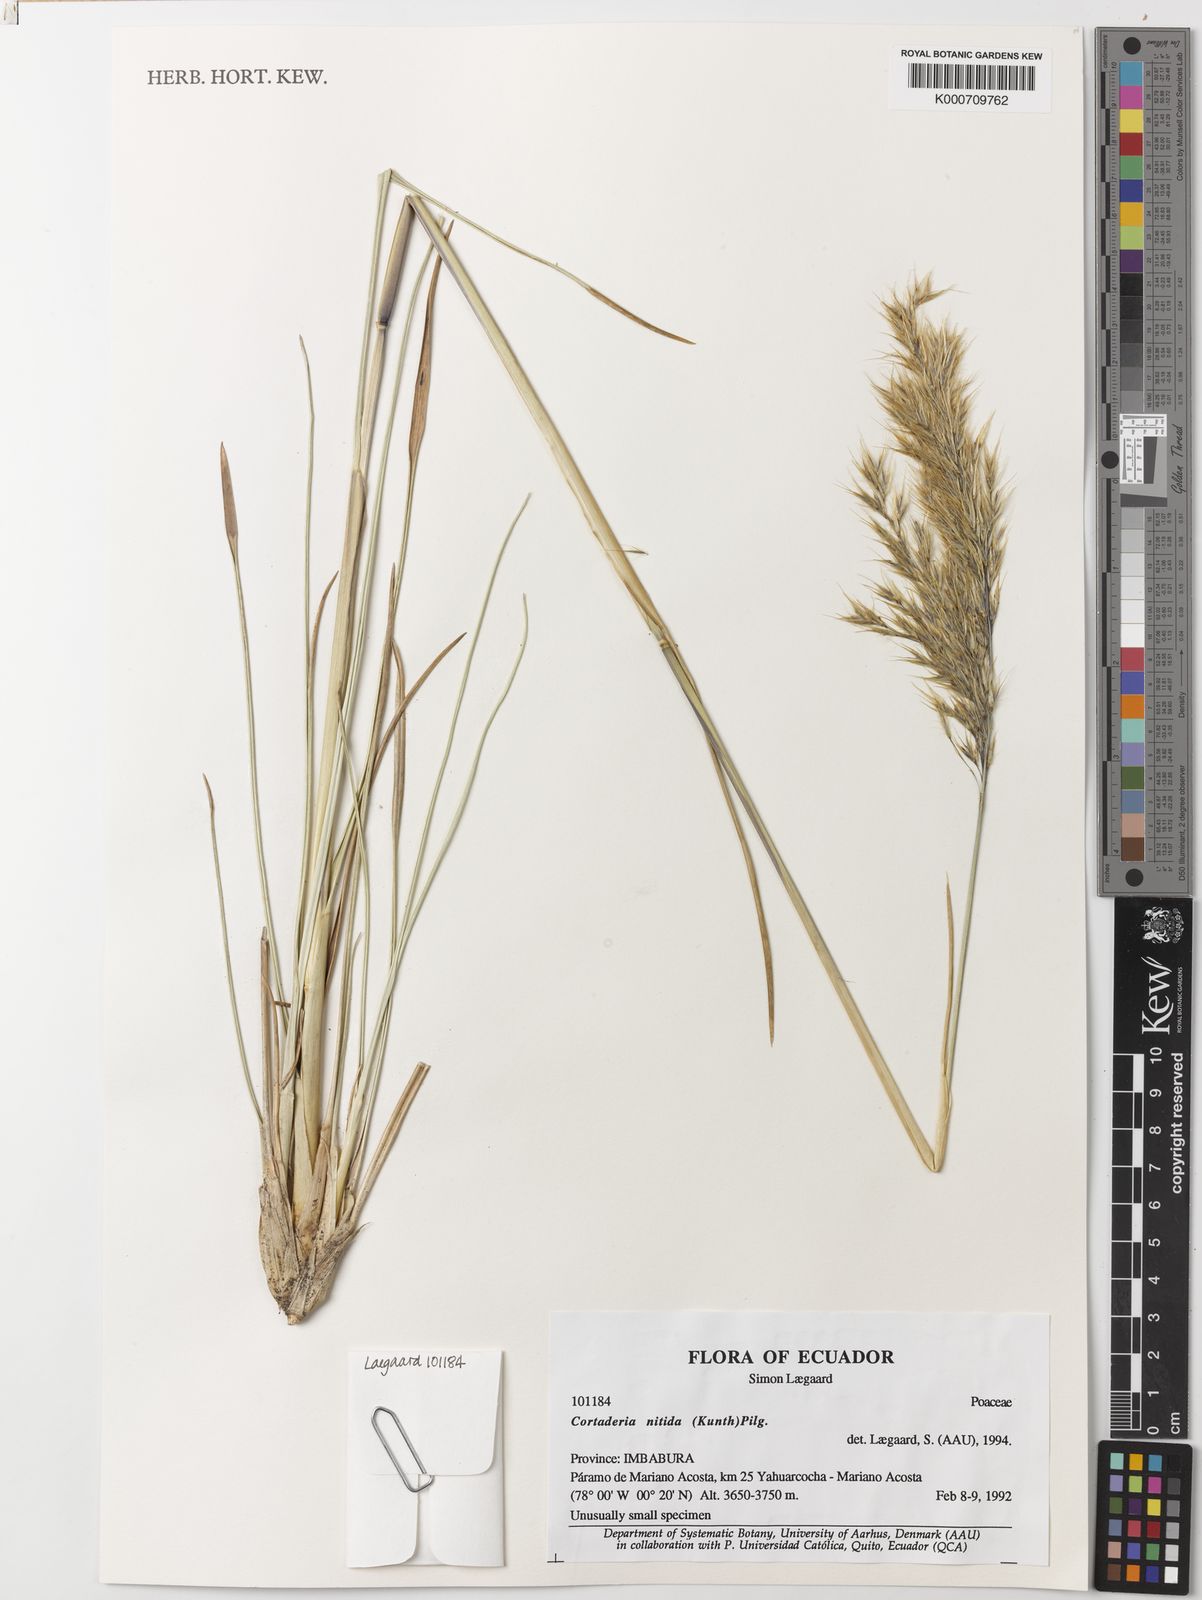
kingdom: Plantae
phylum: Tracheophyta
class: Liliopsida
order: Poales
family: Poaceae
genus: Cortaderia
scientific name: Cortaderia nitida
